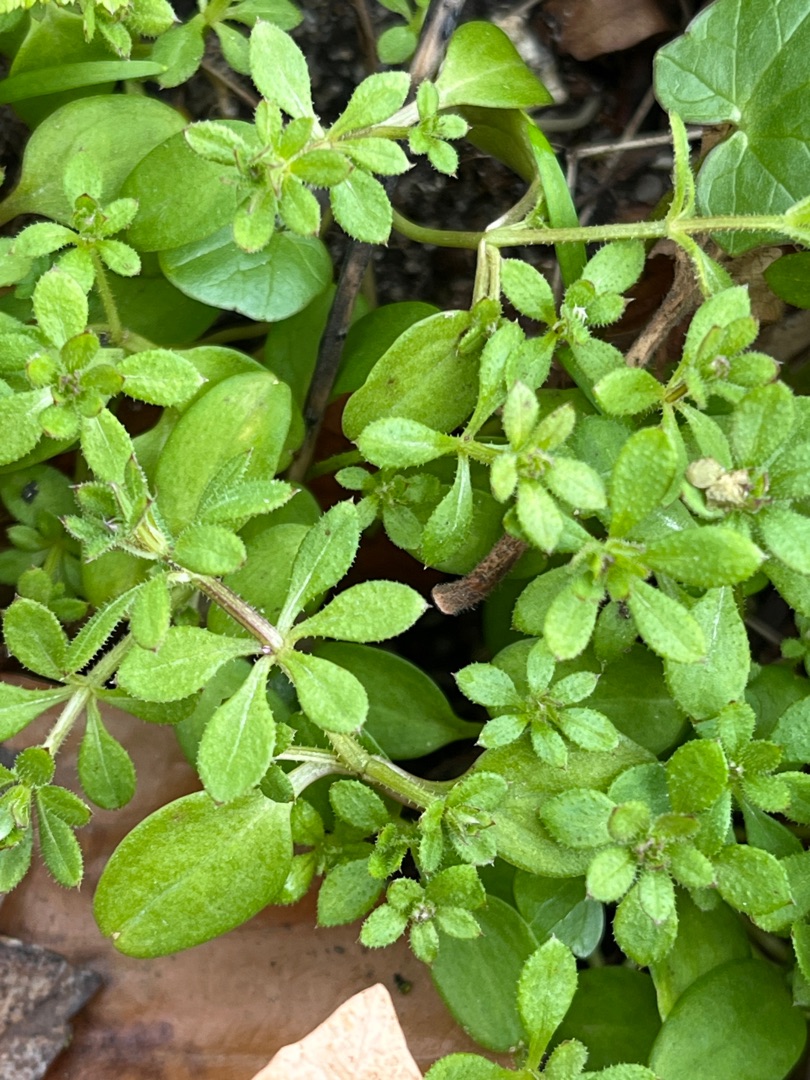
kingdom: Plantae
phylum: Tracheophyta
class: Magnoliopsida
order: Gentianales
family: Rubiaceae
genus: Galium
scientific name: Galium aparine
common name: Burre-snerre
